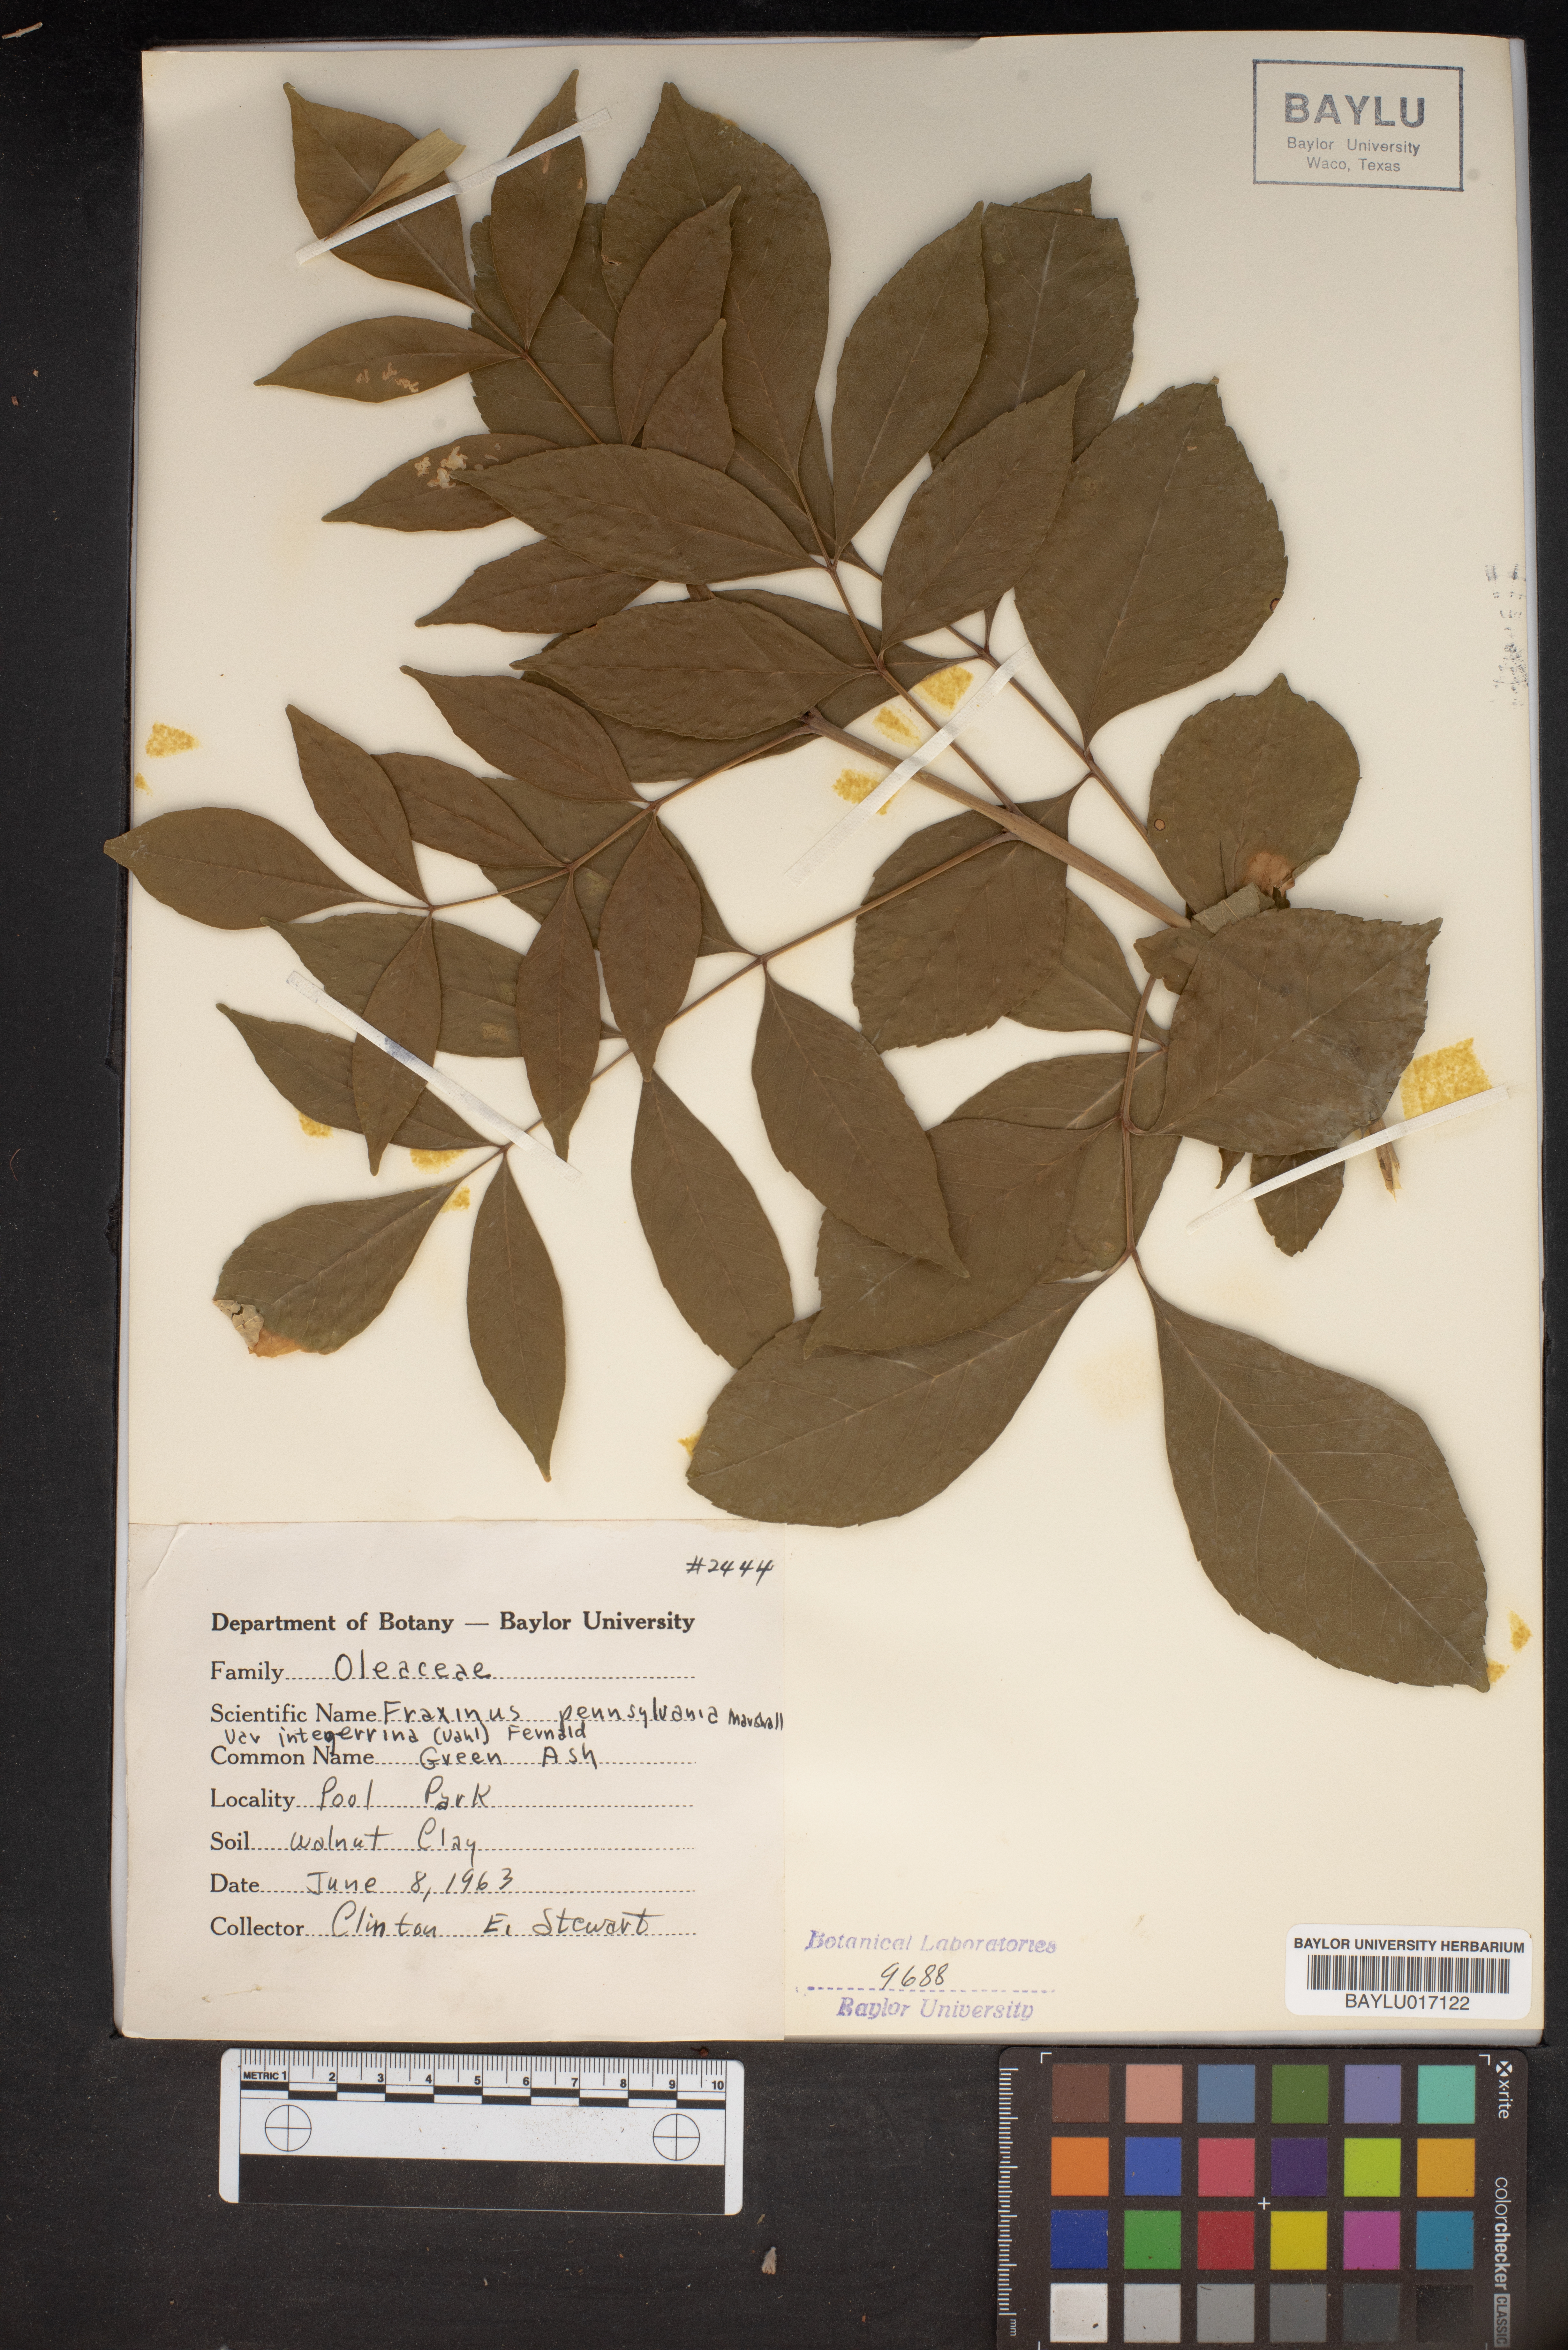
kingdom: Plantae
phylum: Tracheophyta
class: Magnoliopsida
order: Lamiales
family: Oleaceae
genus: Fraxinus
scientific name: Fraxinus pennsylvanica
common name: Green ash
